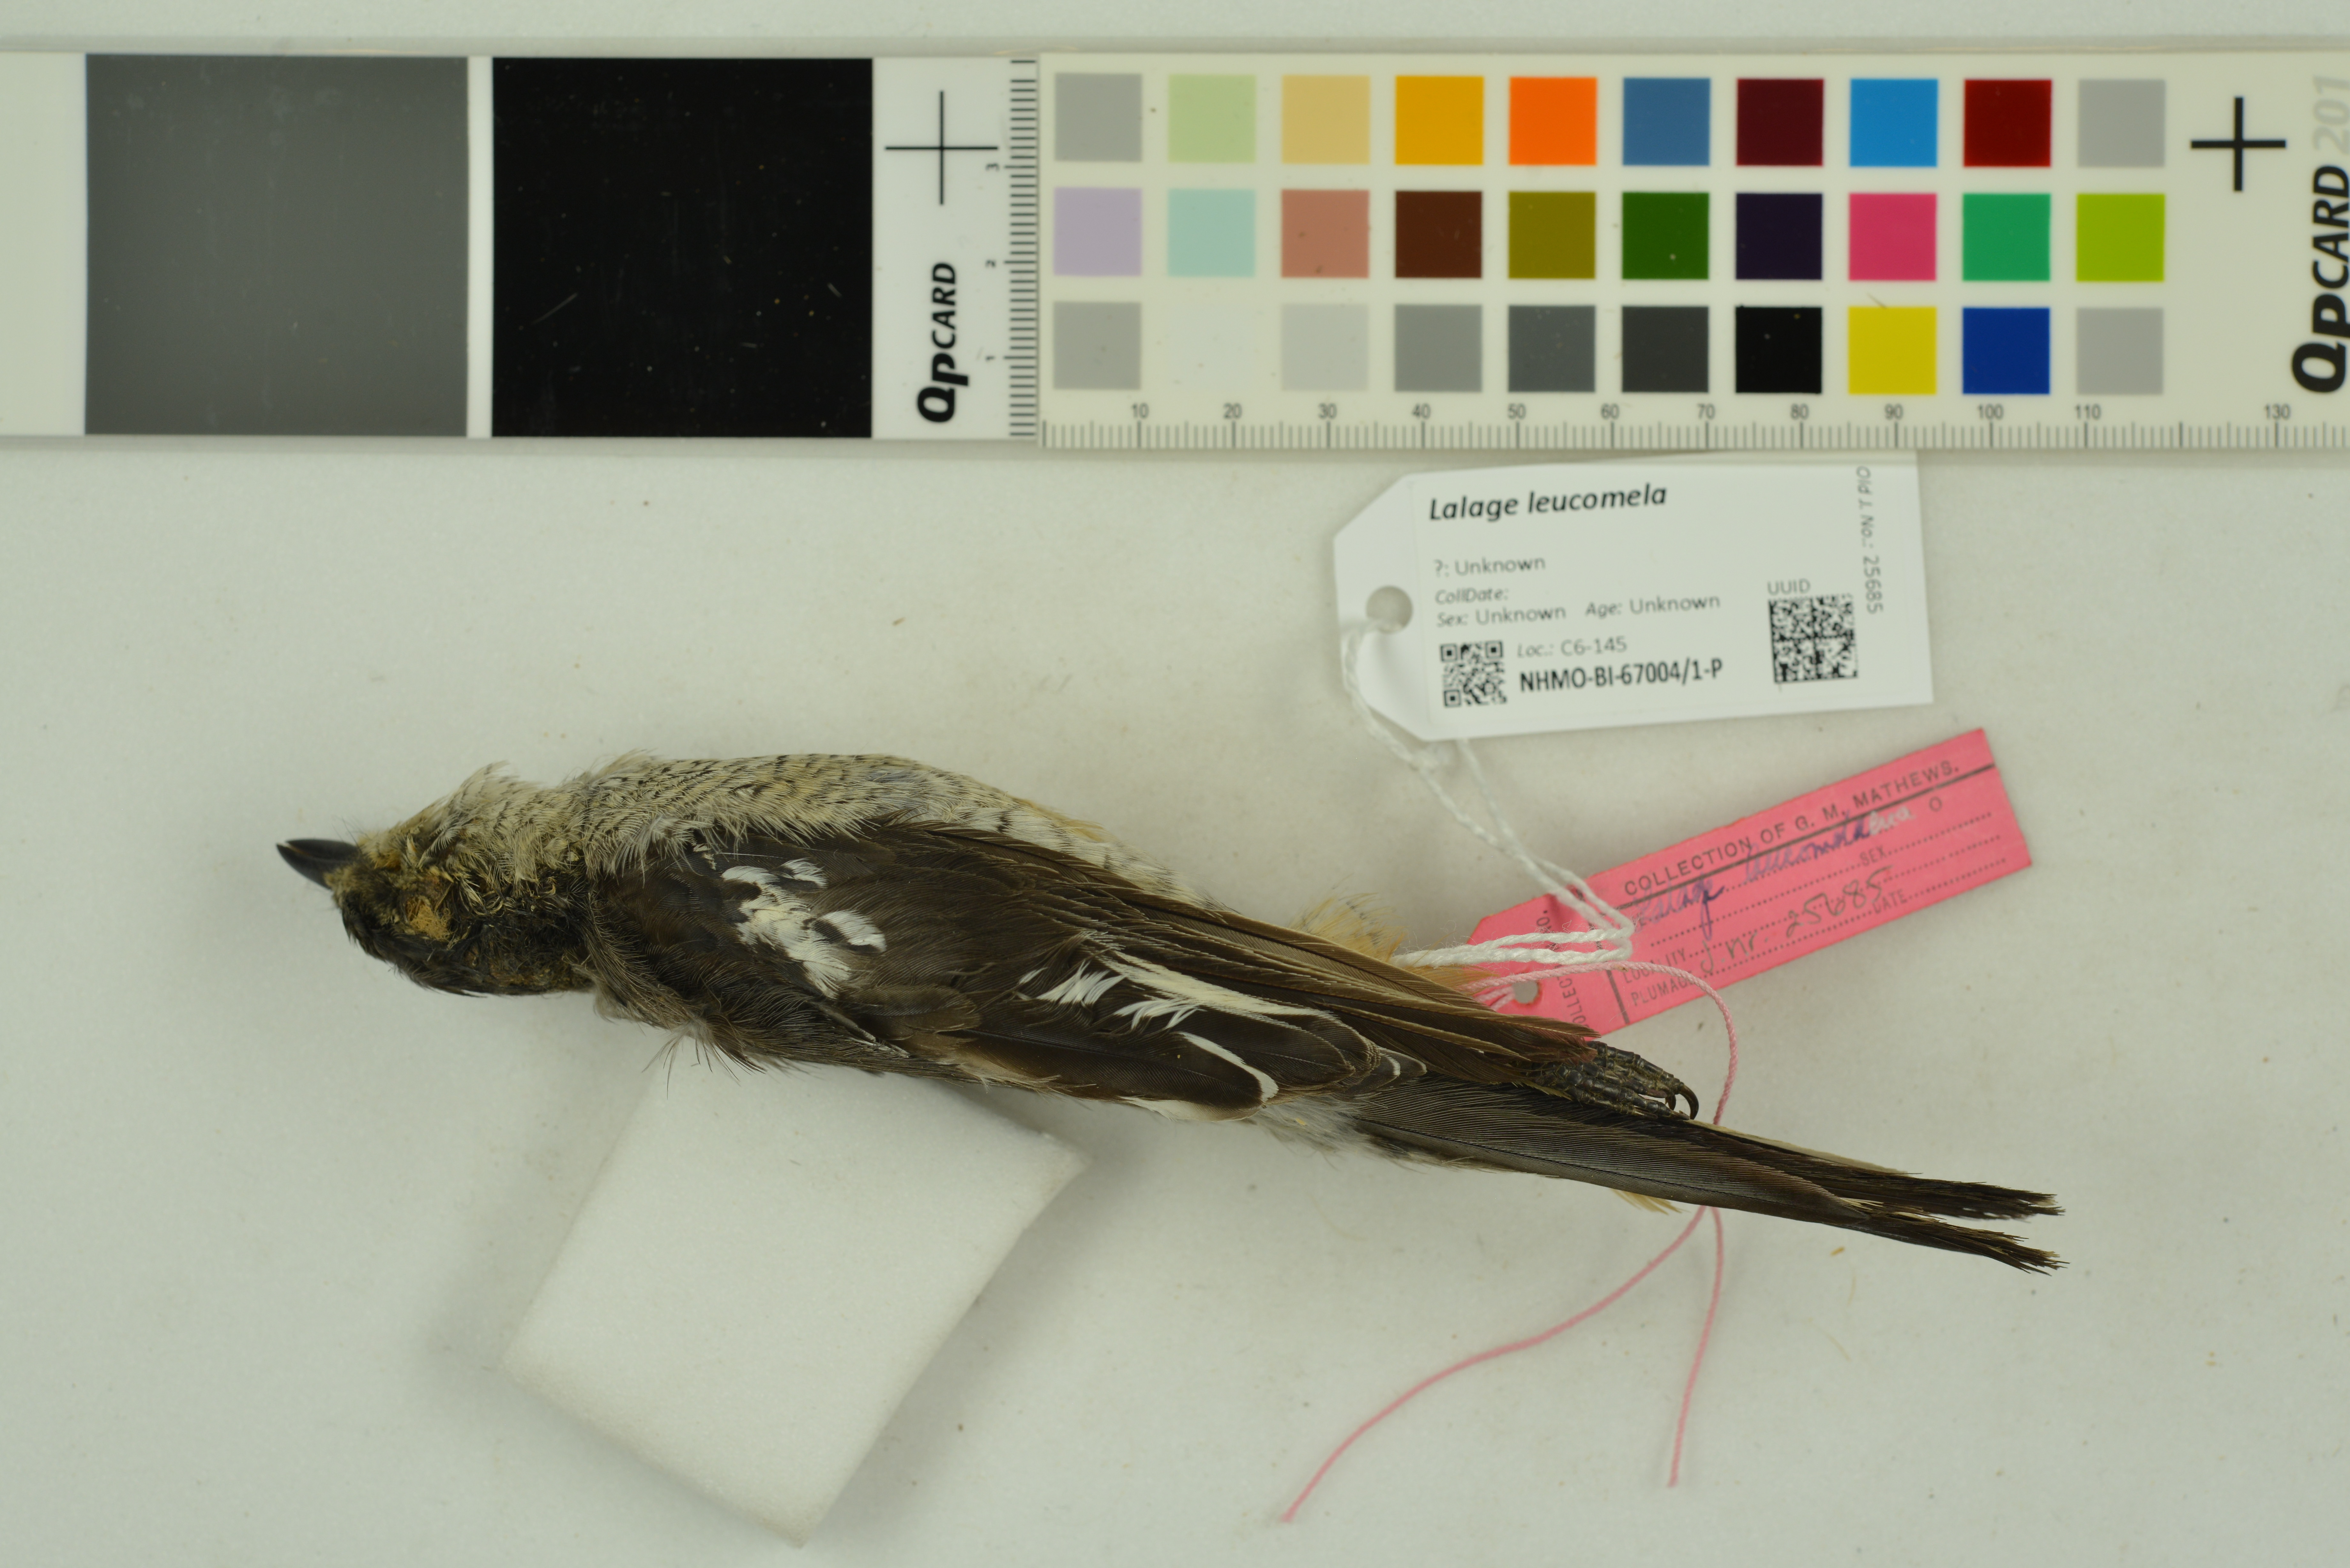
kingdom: Animalia
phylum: Chordata
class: Aves
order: Passeriformes
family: Campephagidae
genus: Lalage
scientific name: Lalage leucomela
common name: Varied triller
